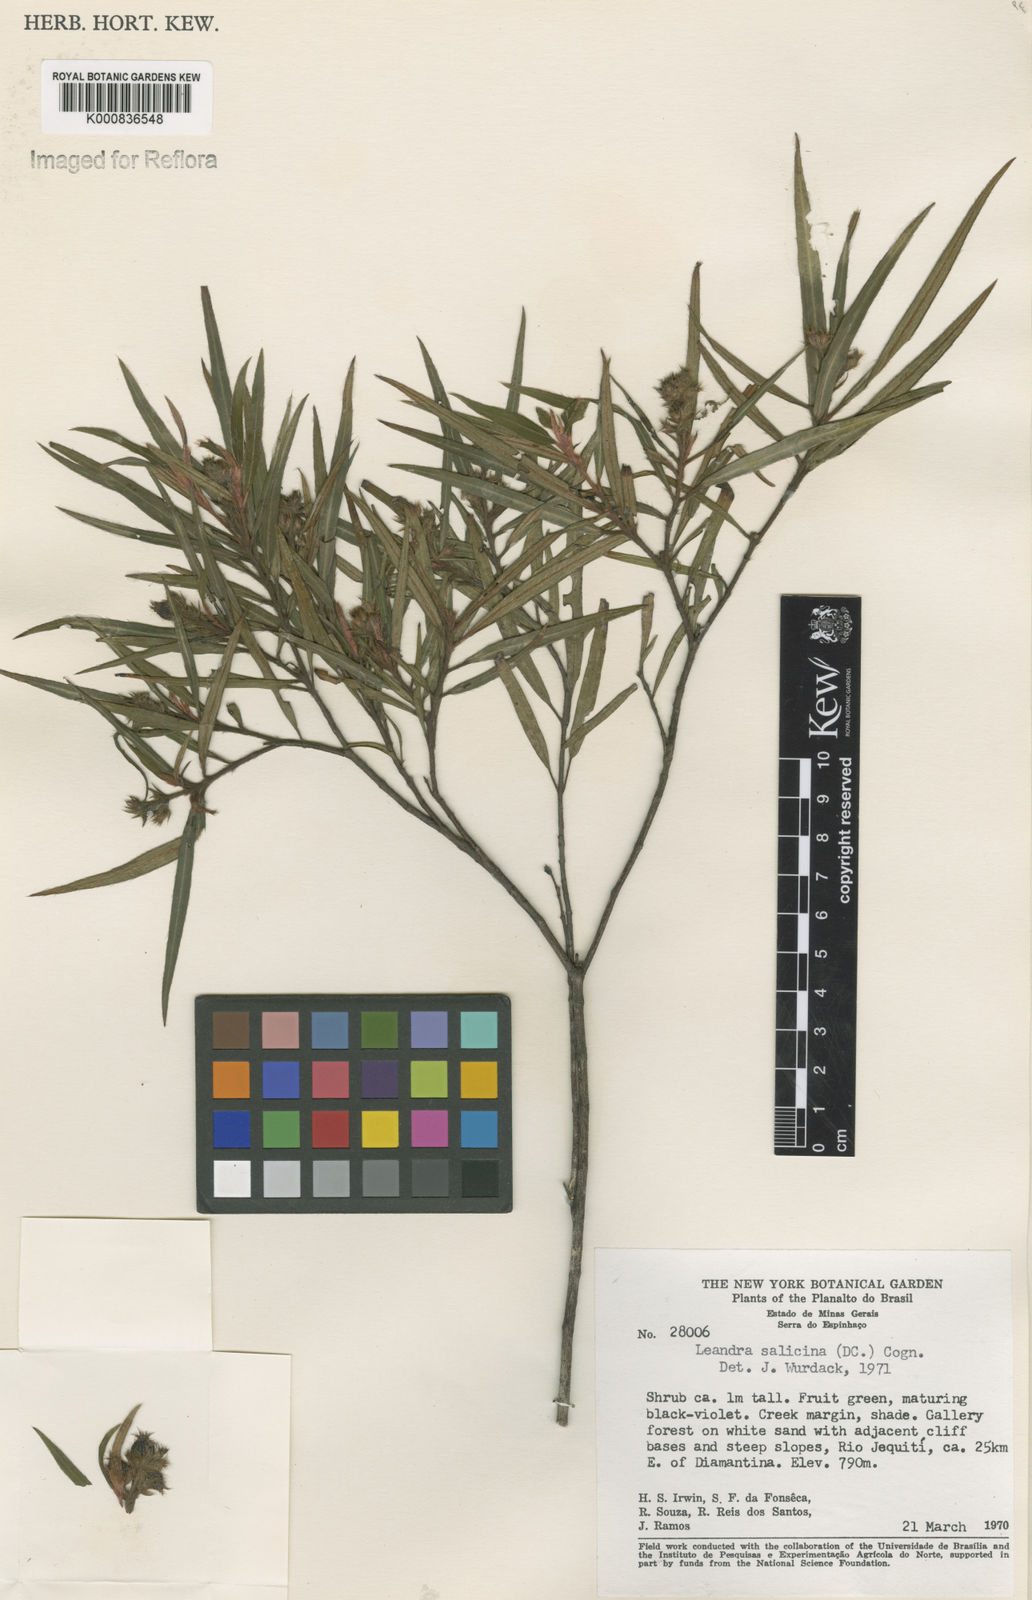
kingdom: Plantae
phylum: Tracheophyta
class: Magnoliopsida
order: Myrtales
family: Melastomataceae
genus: Miconia
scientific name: Miconia salicina
